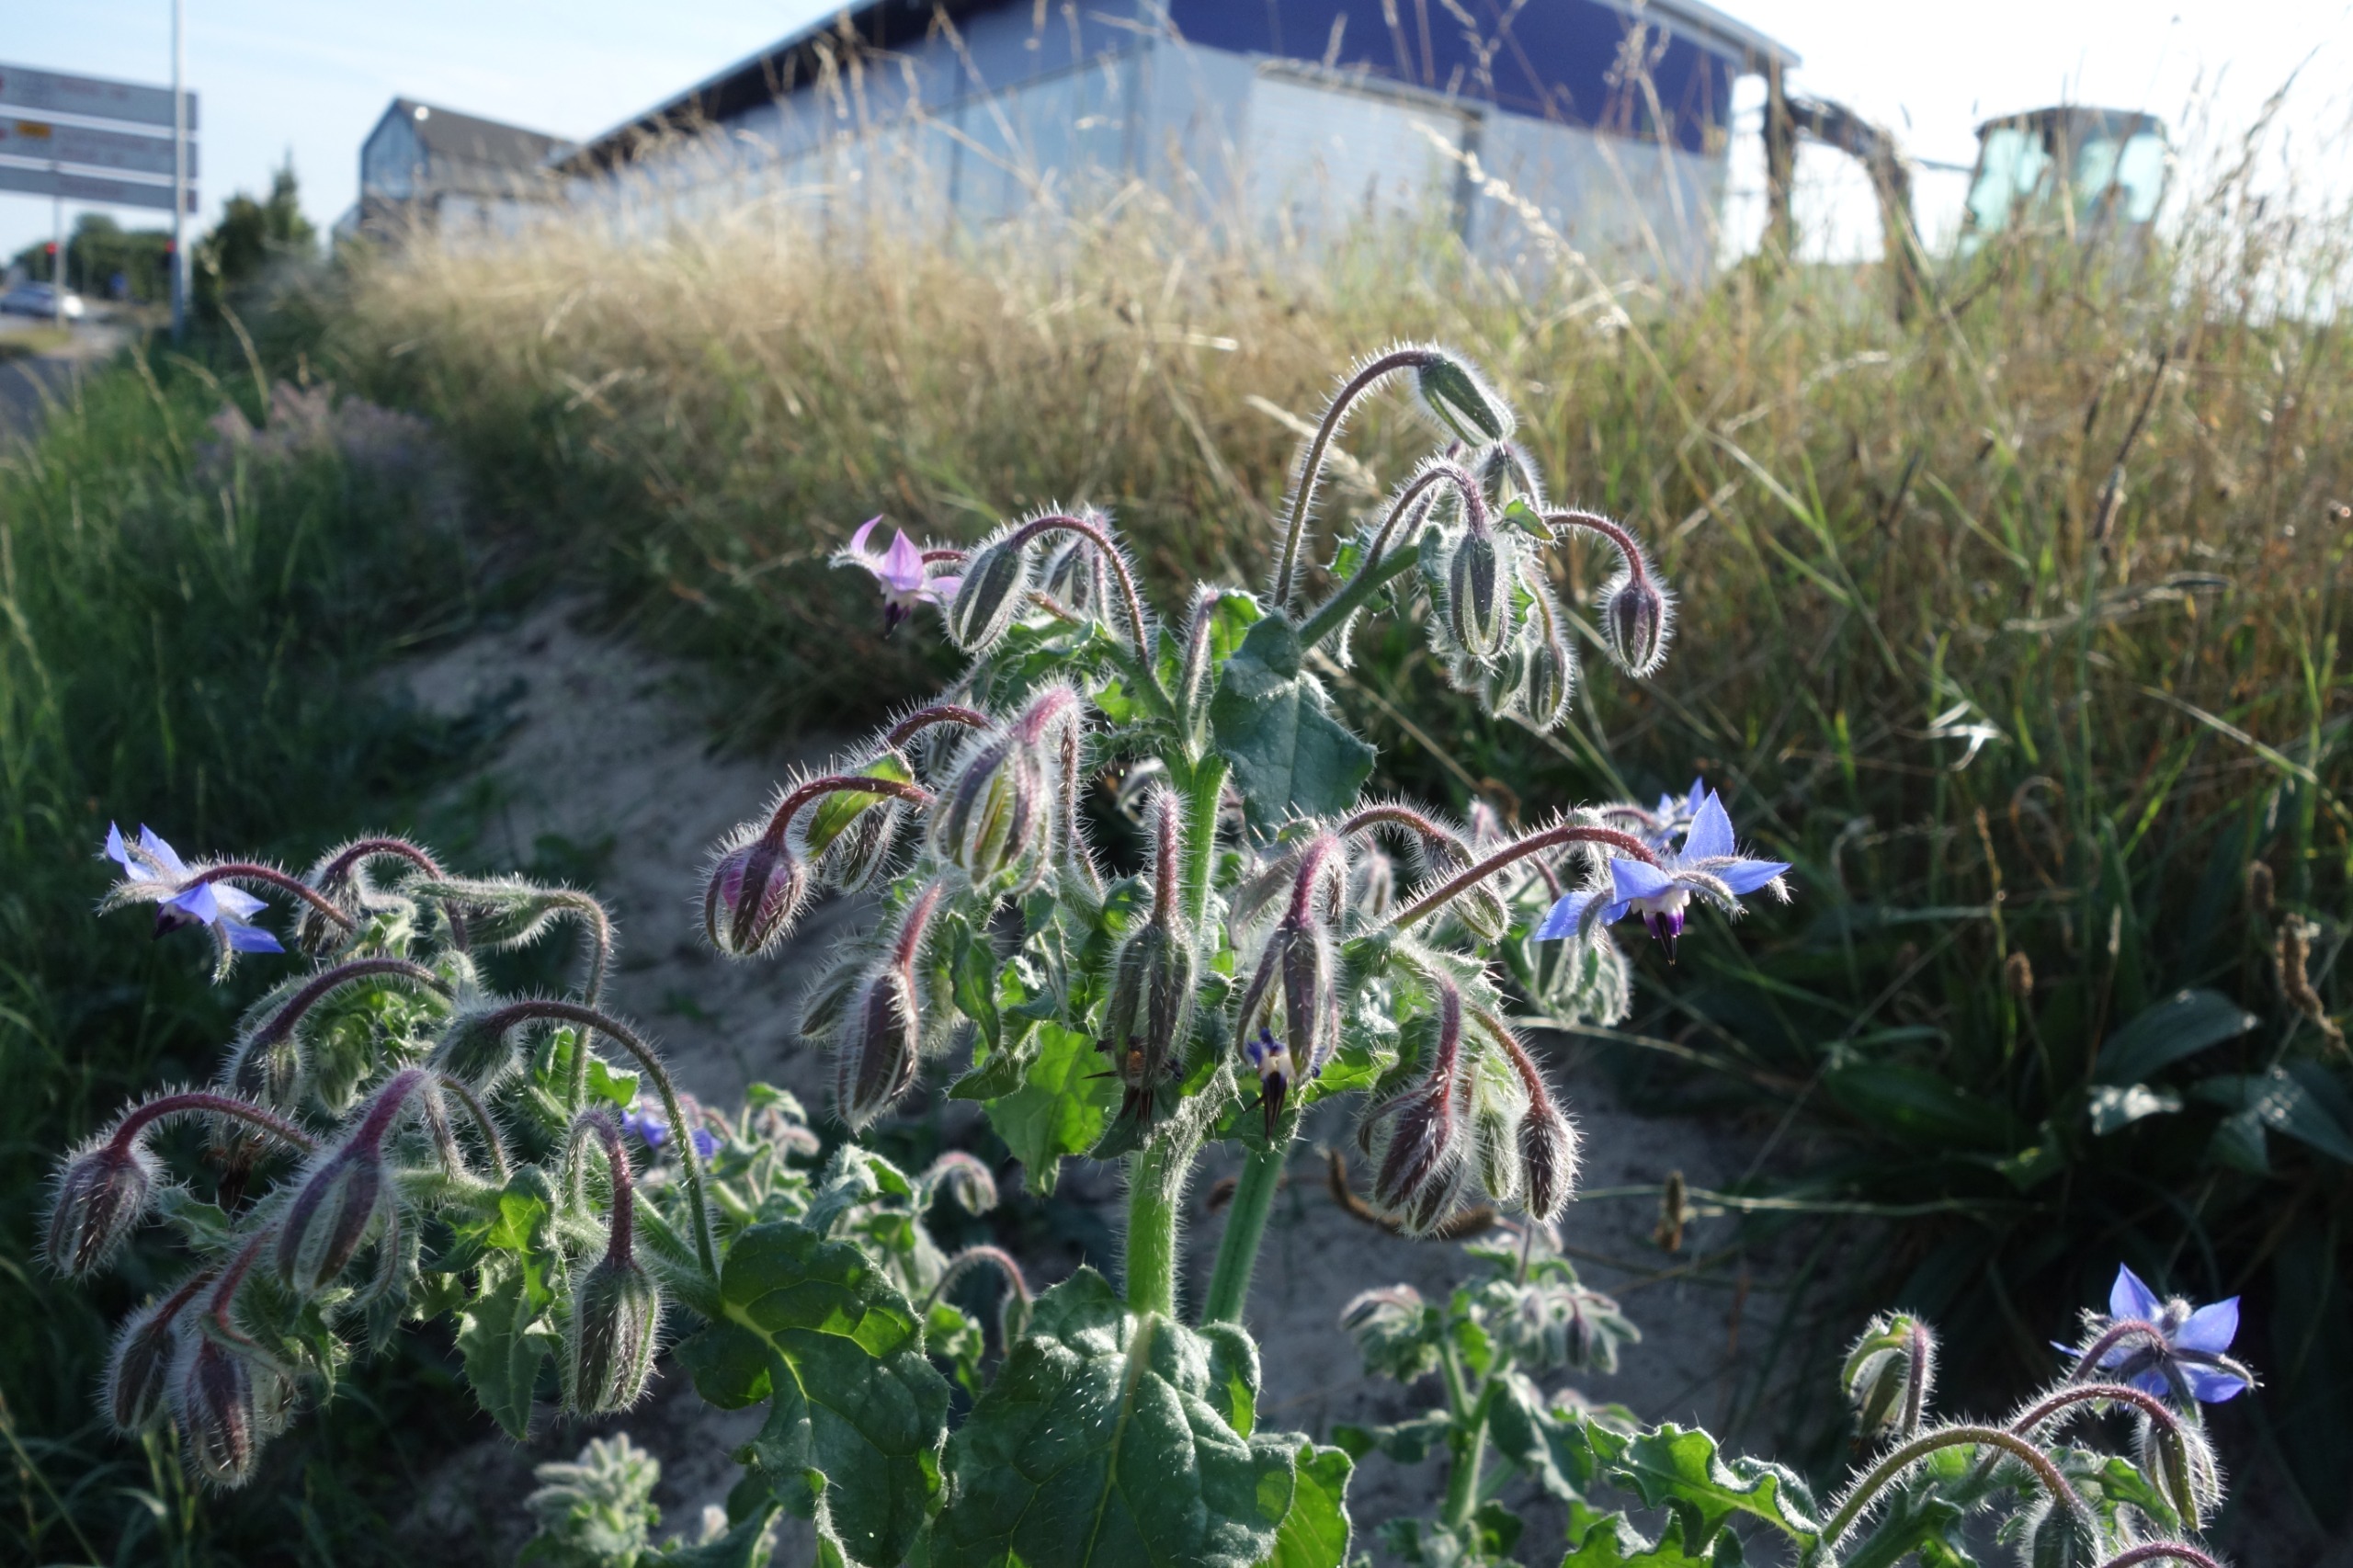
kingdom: Plantae
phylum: Tracheophyta
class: Magnoliopsida
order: Boraginales
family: Boraginaceae
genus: Borago
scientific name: Borago officinalis
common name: Hjulkrone
